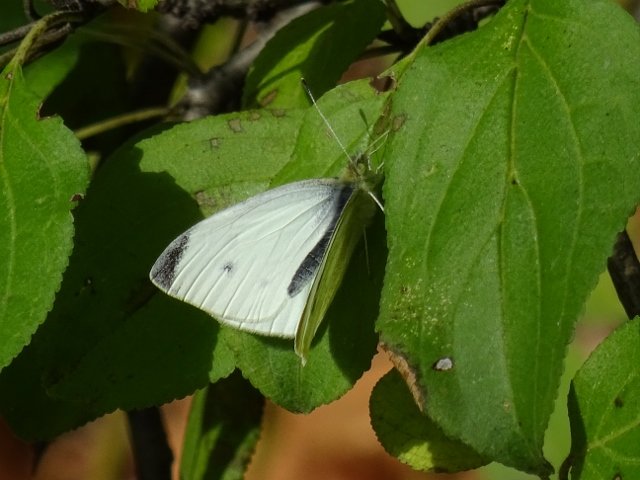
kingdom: Animalia
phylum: Arthropoda
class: Insecta
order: Lepidoptera
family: Pieridae
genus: Pieris
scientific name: Pieris rapae
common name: Cabbage White
